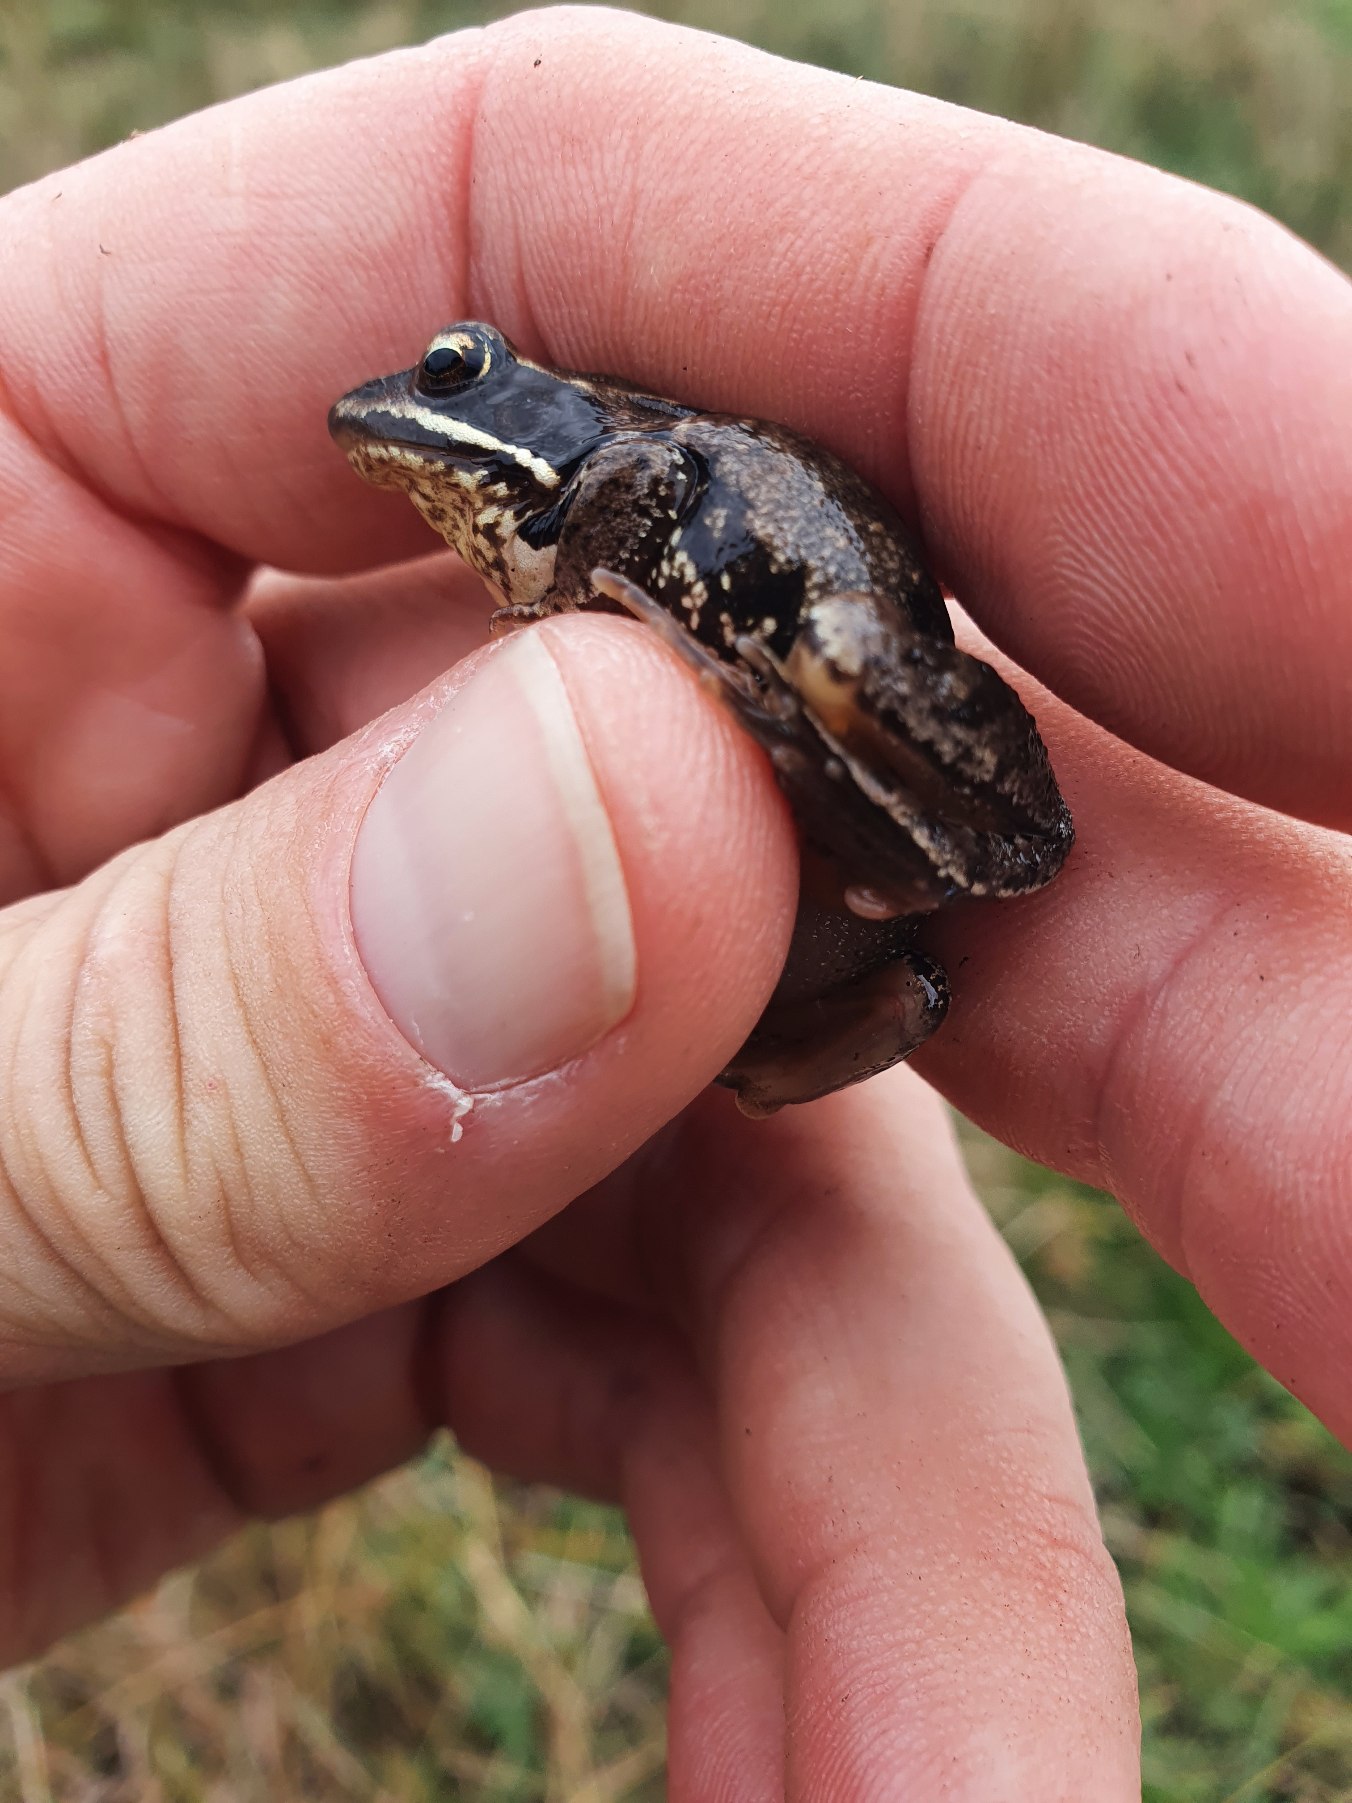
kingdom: Animalia
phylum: Chordata
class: Amphibia
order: Anura
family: Ranidae
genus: Rana
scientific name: Rana arvalis
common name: Spidssnudet frø
